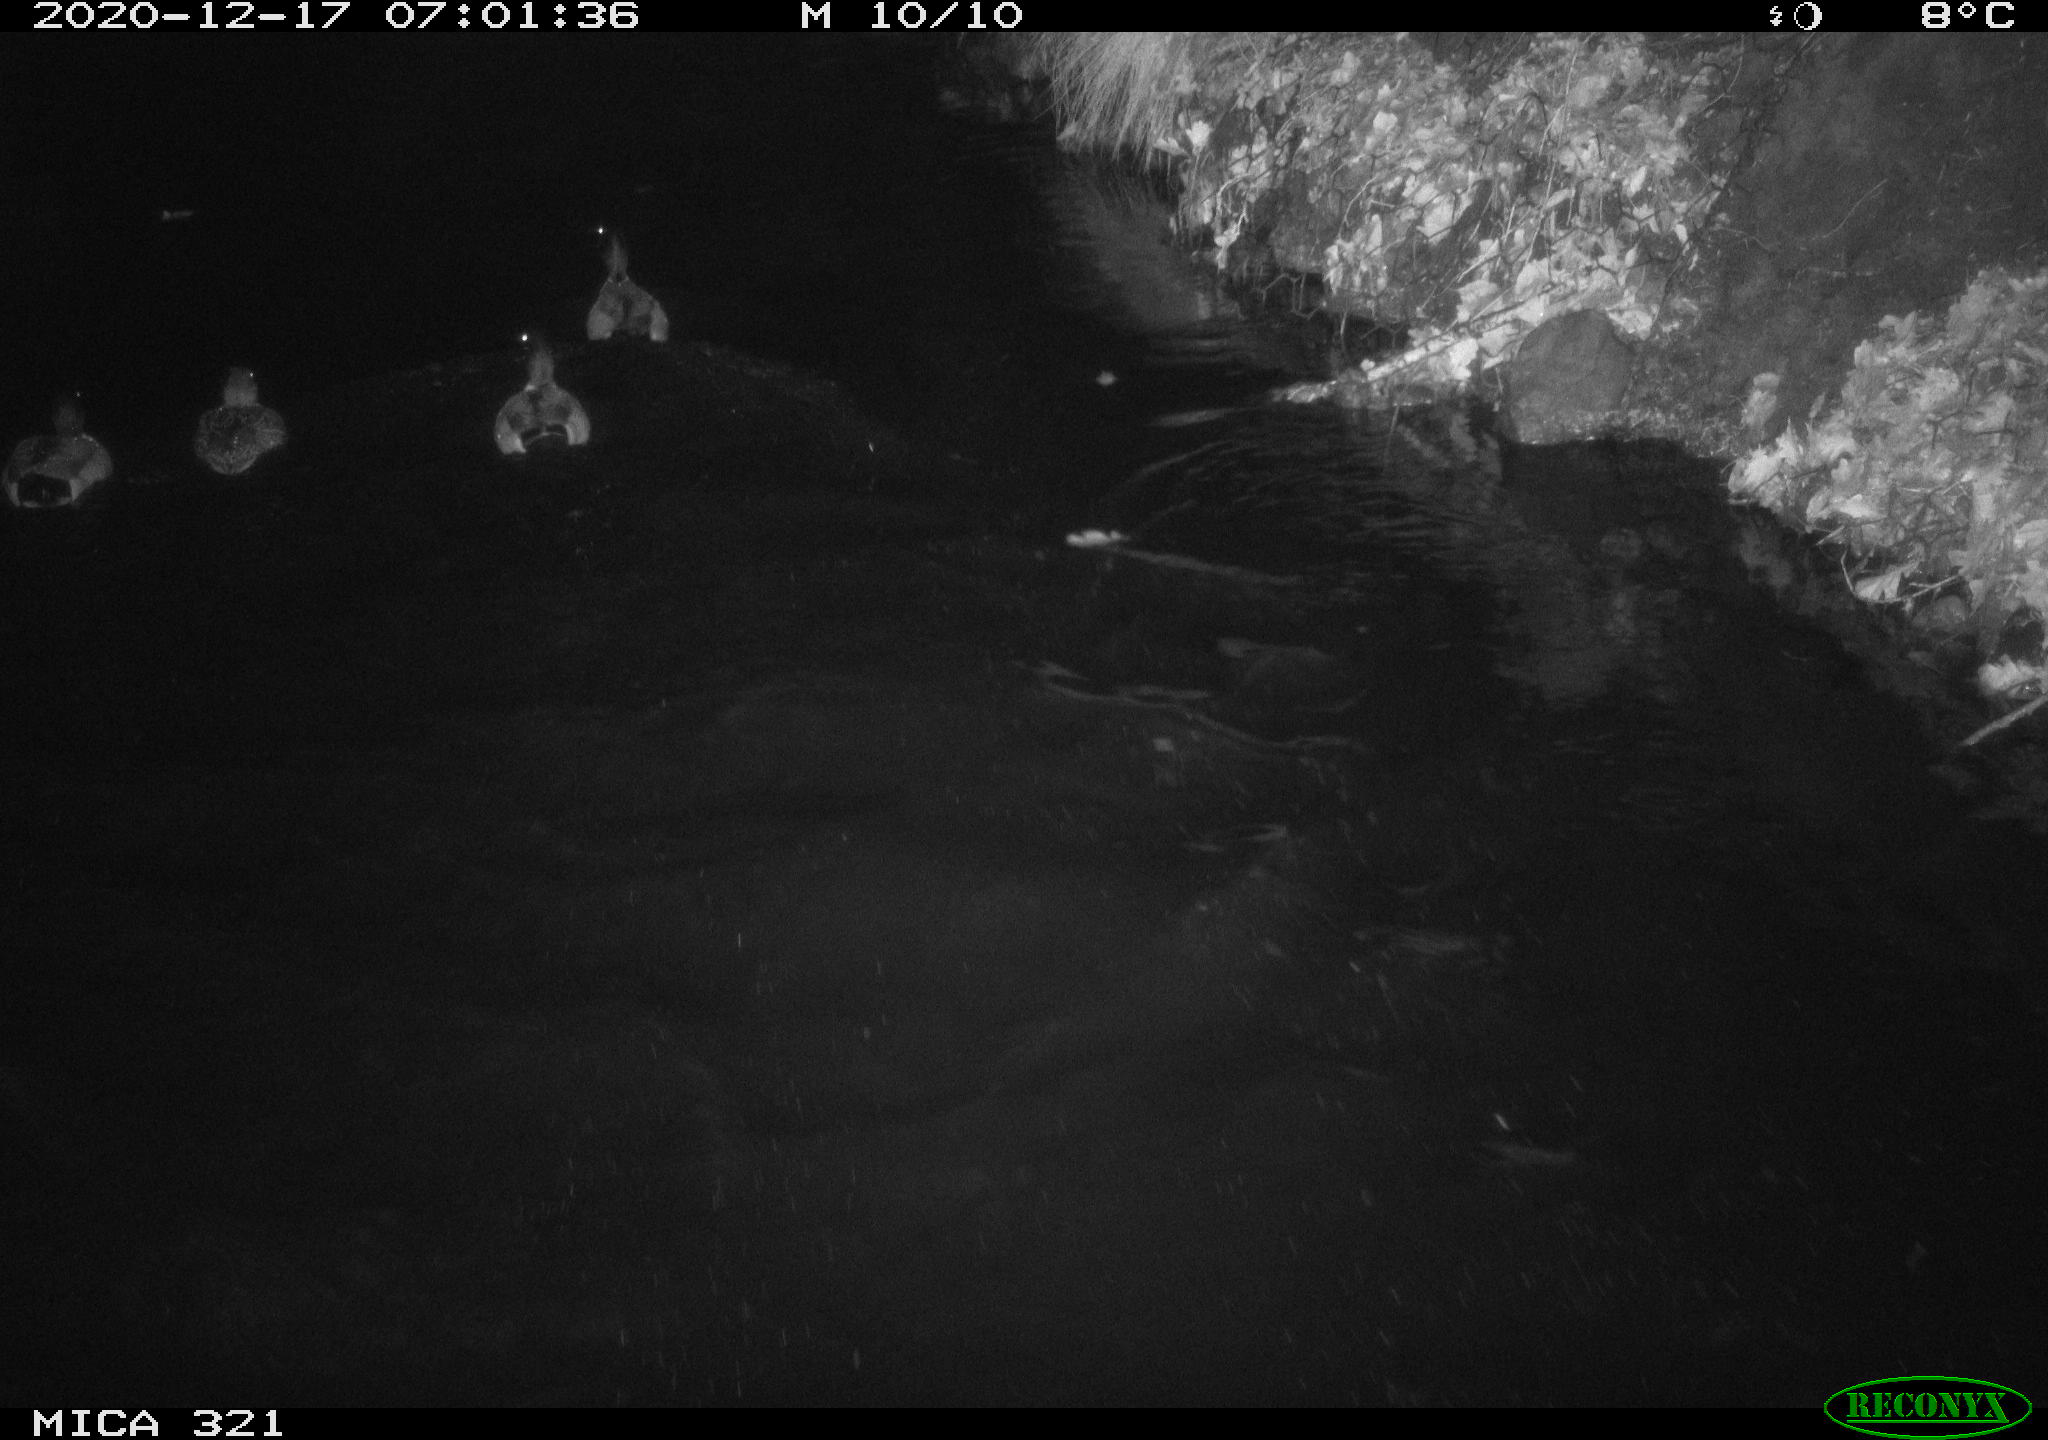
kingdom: Animalia
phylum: Chordata
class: Aves
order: Anseriformes
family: Anatidae
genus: Anas
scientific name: Anas platyrhynchos
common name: Mallard
